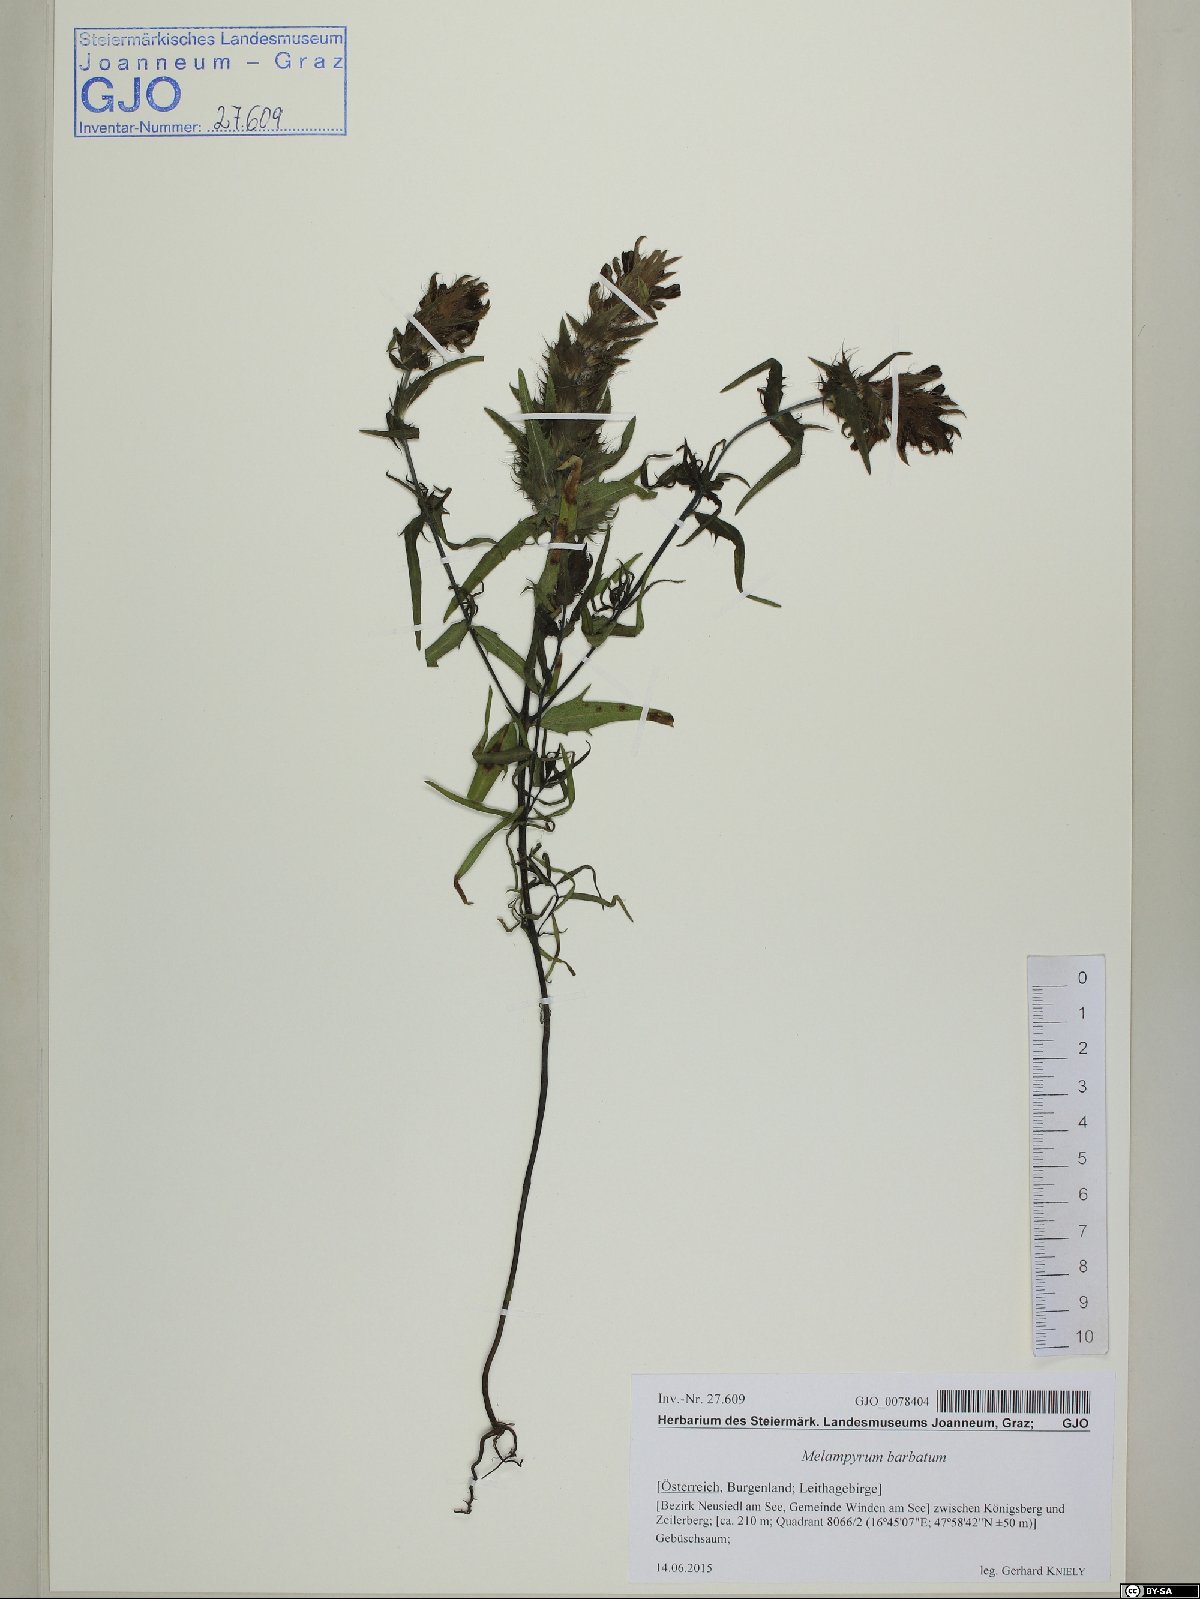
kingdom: Plantae
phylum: Tracheophyta
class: Magnoliopsida
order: Lamiales
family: Orobanchaceae
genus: Melampyrum
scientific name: Melampyrum barbatum
